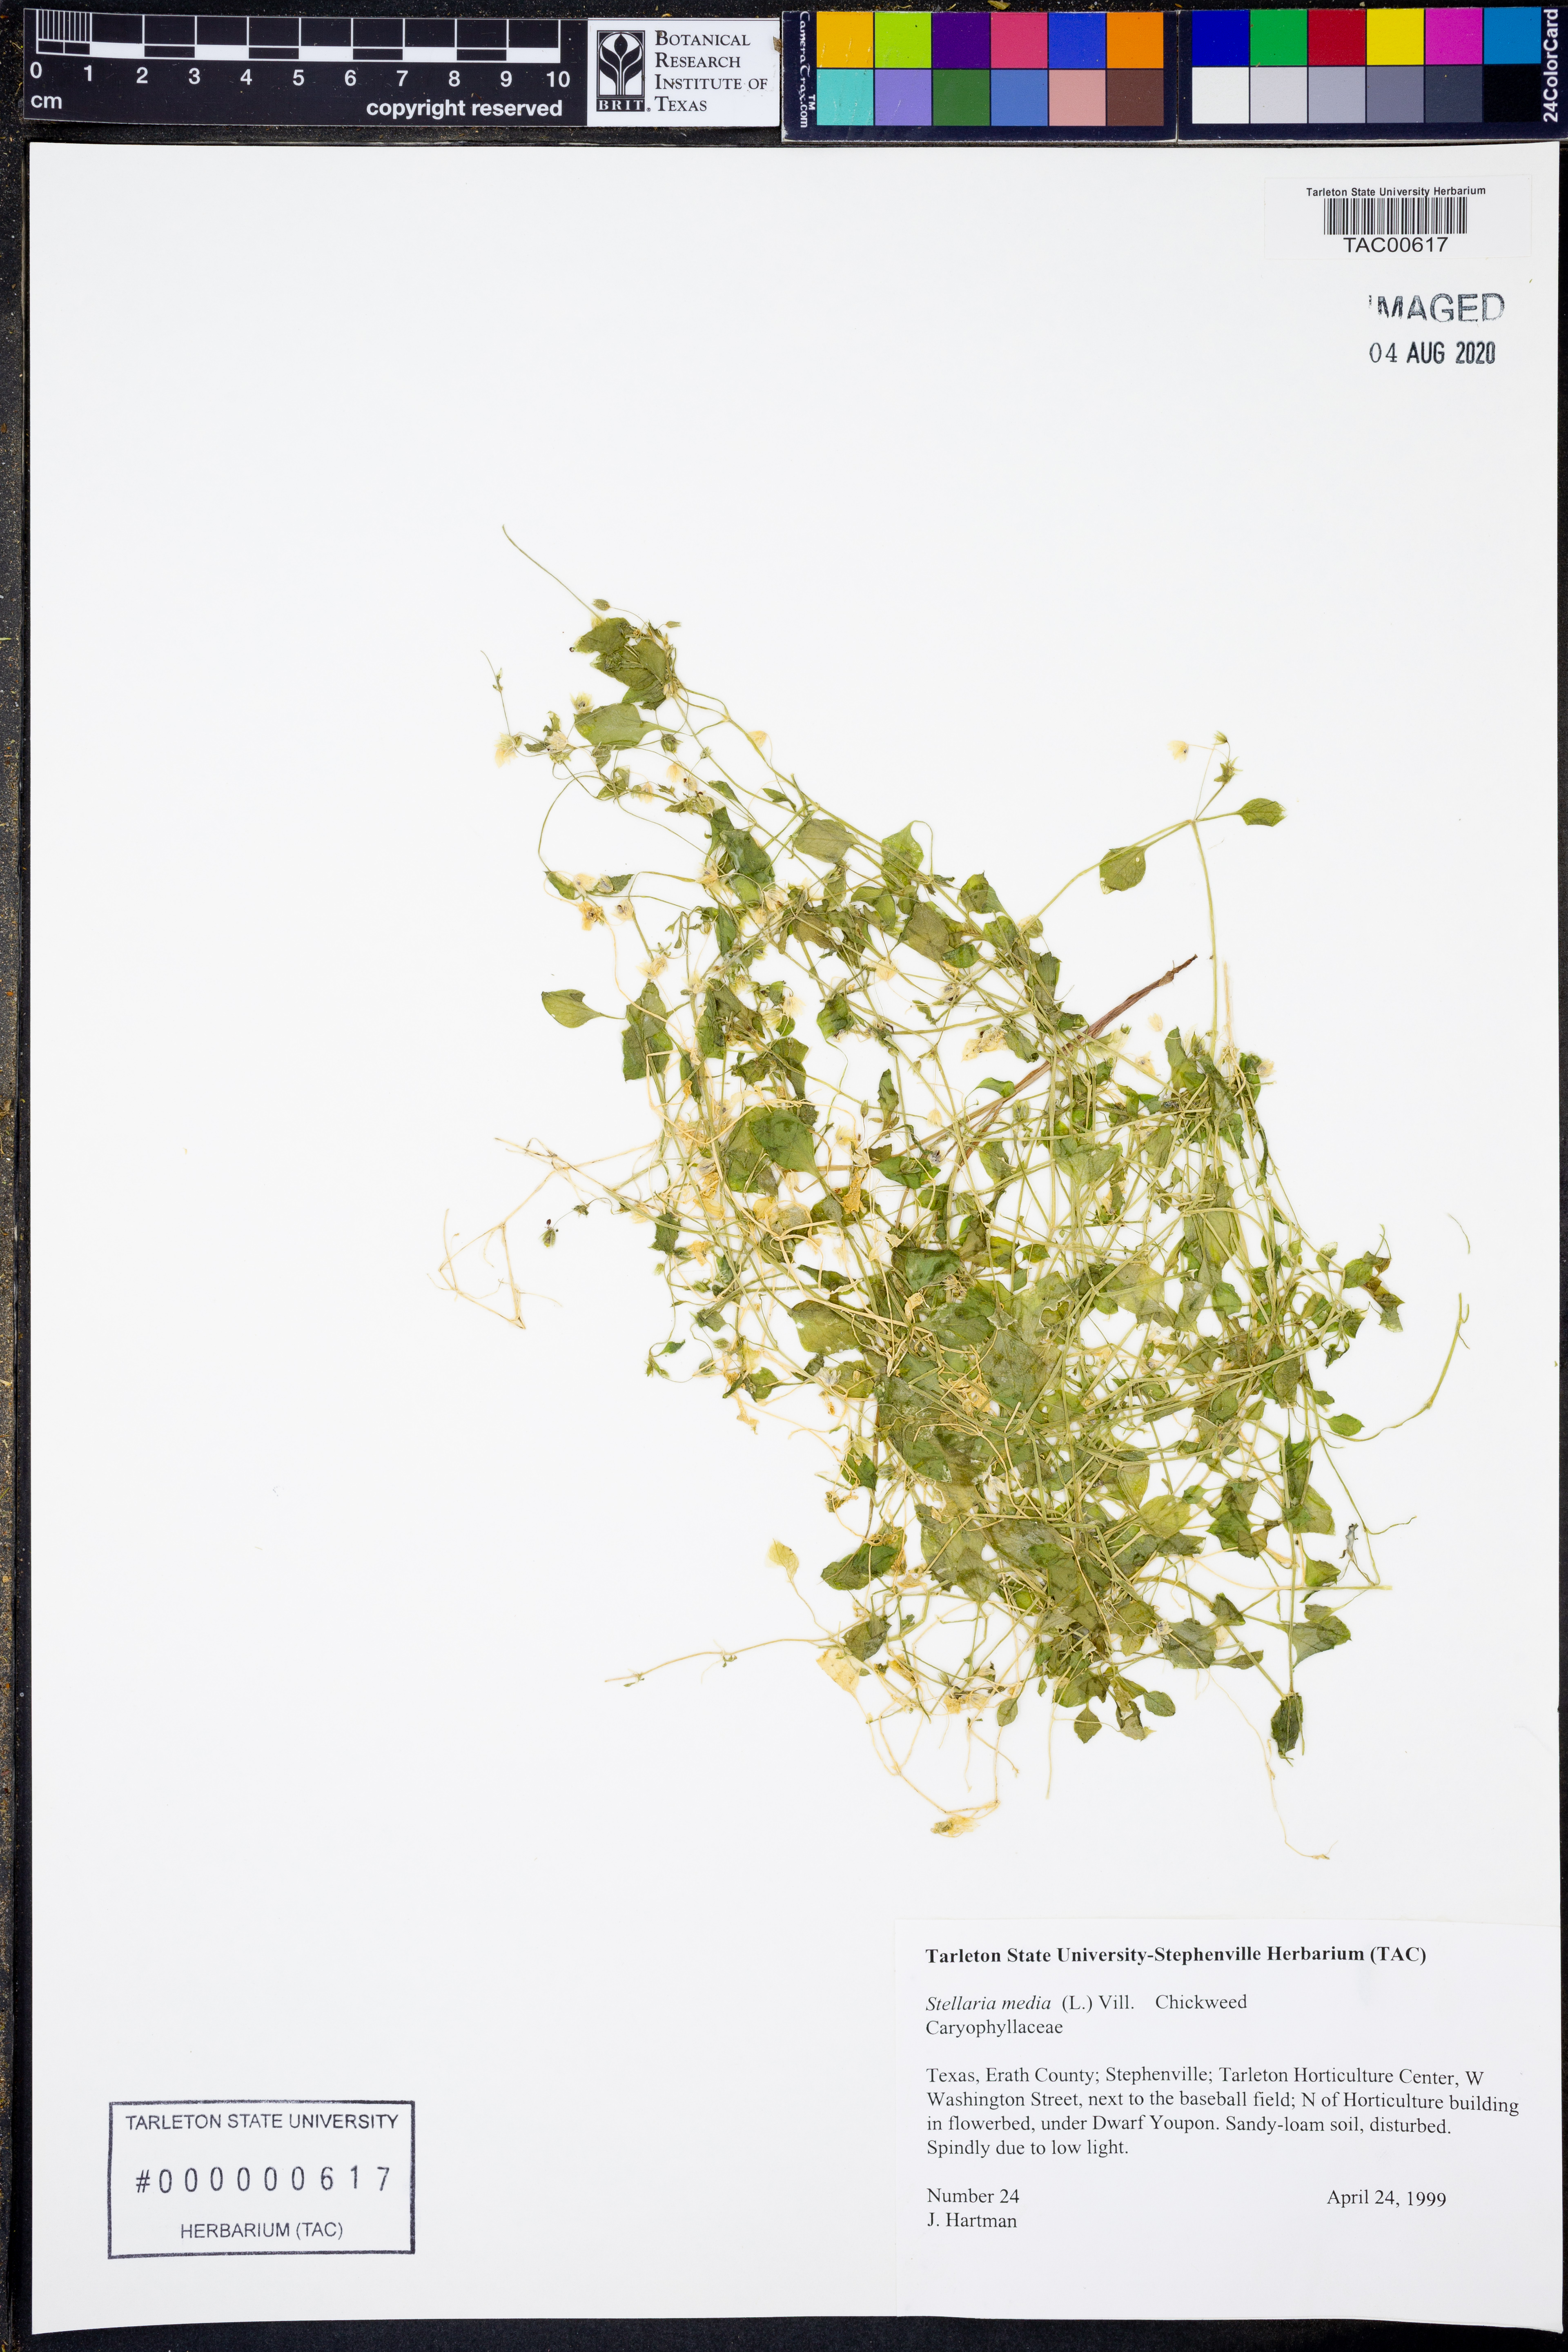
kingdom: Plantae
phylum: Tracheophyta
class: Magnoliopsida
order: Caryophyllales
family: Caryophyllaceae
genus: Stellaria
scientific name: Stellaria media
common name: Common chickweed
